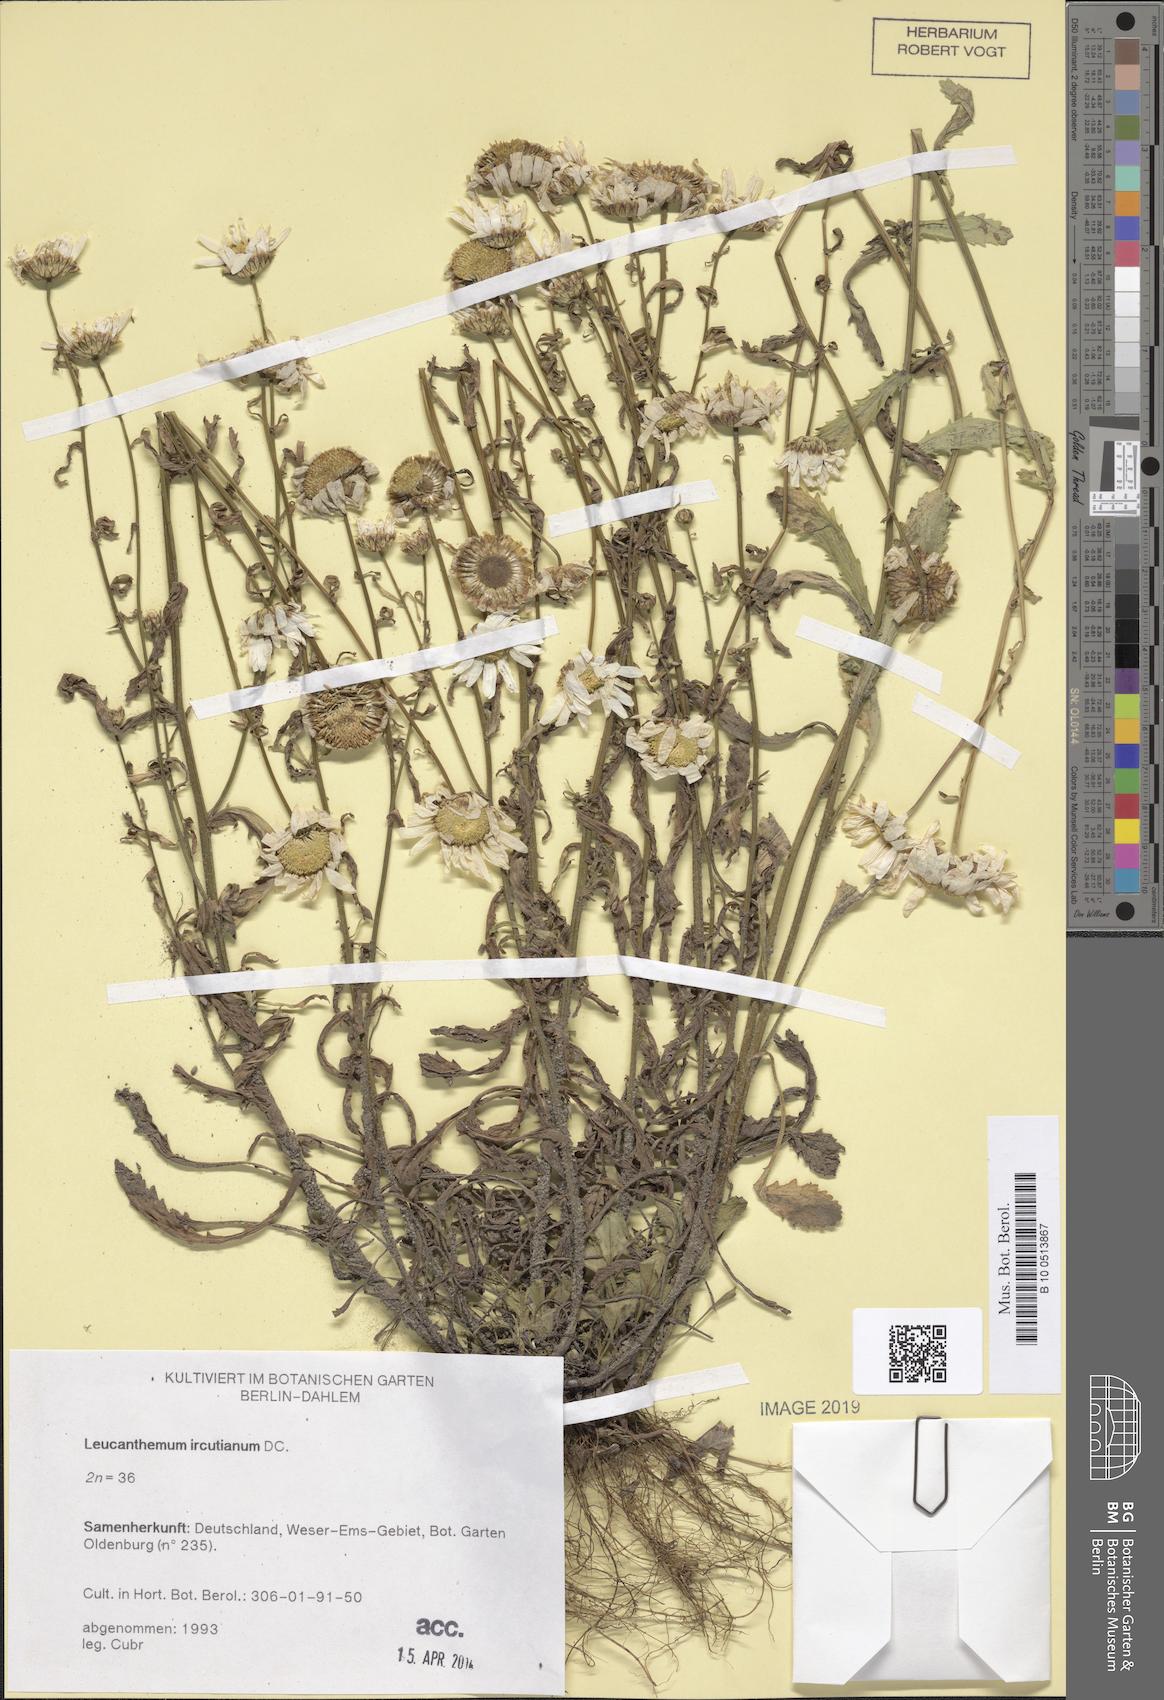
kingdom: Plantae
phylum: Tracheophyta
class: Magnoliopsida
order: Asterales
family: Asteraceae
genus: Leucanthemum
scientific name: Leucanthemum ircutianum
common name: Daisy
